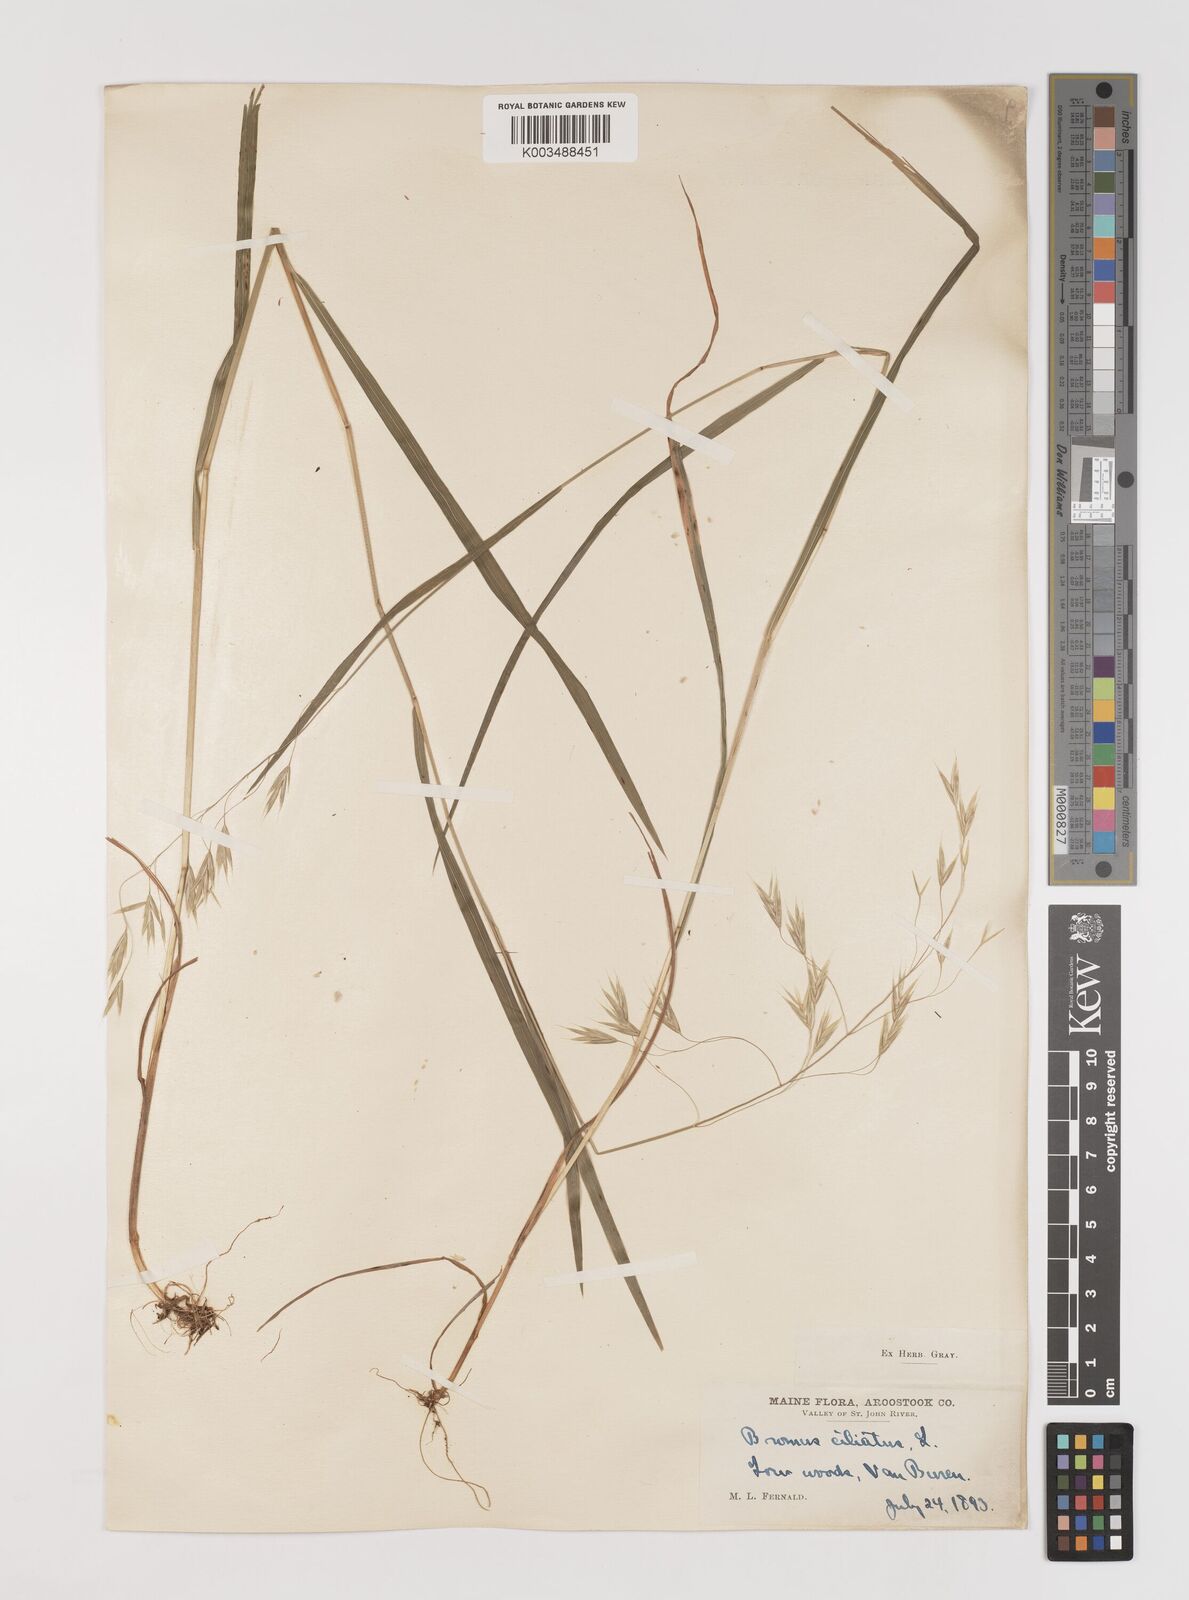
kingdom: Plantae
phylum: Tracheophyta
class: Liliopsida
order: Poales
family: Poaceae
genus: Bromus
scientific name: Bromus ciliatus
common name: Fringe brome
